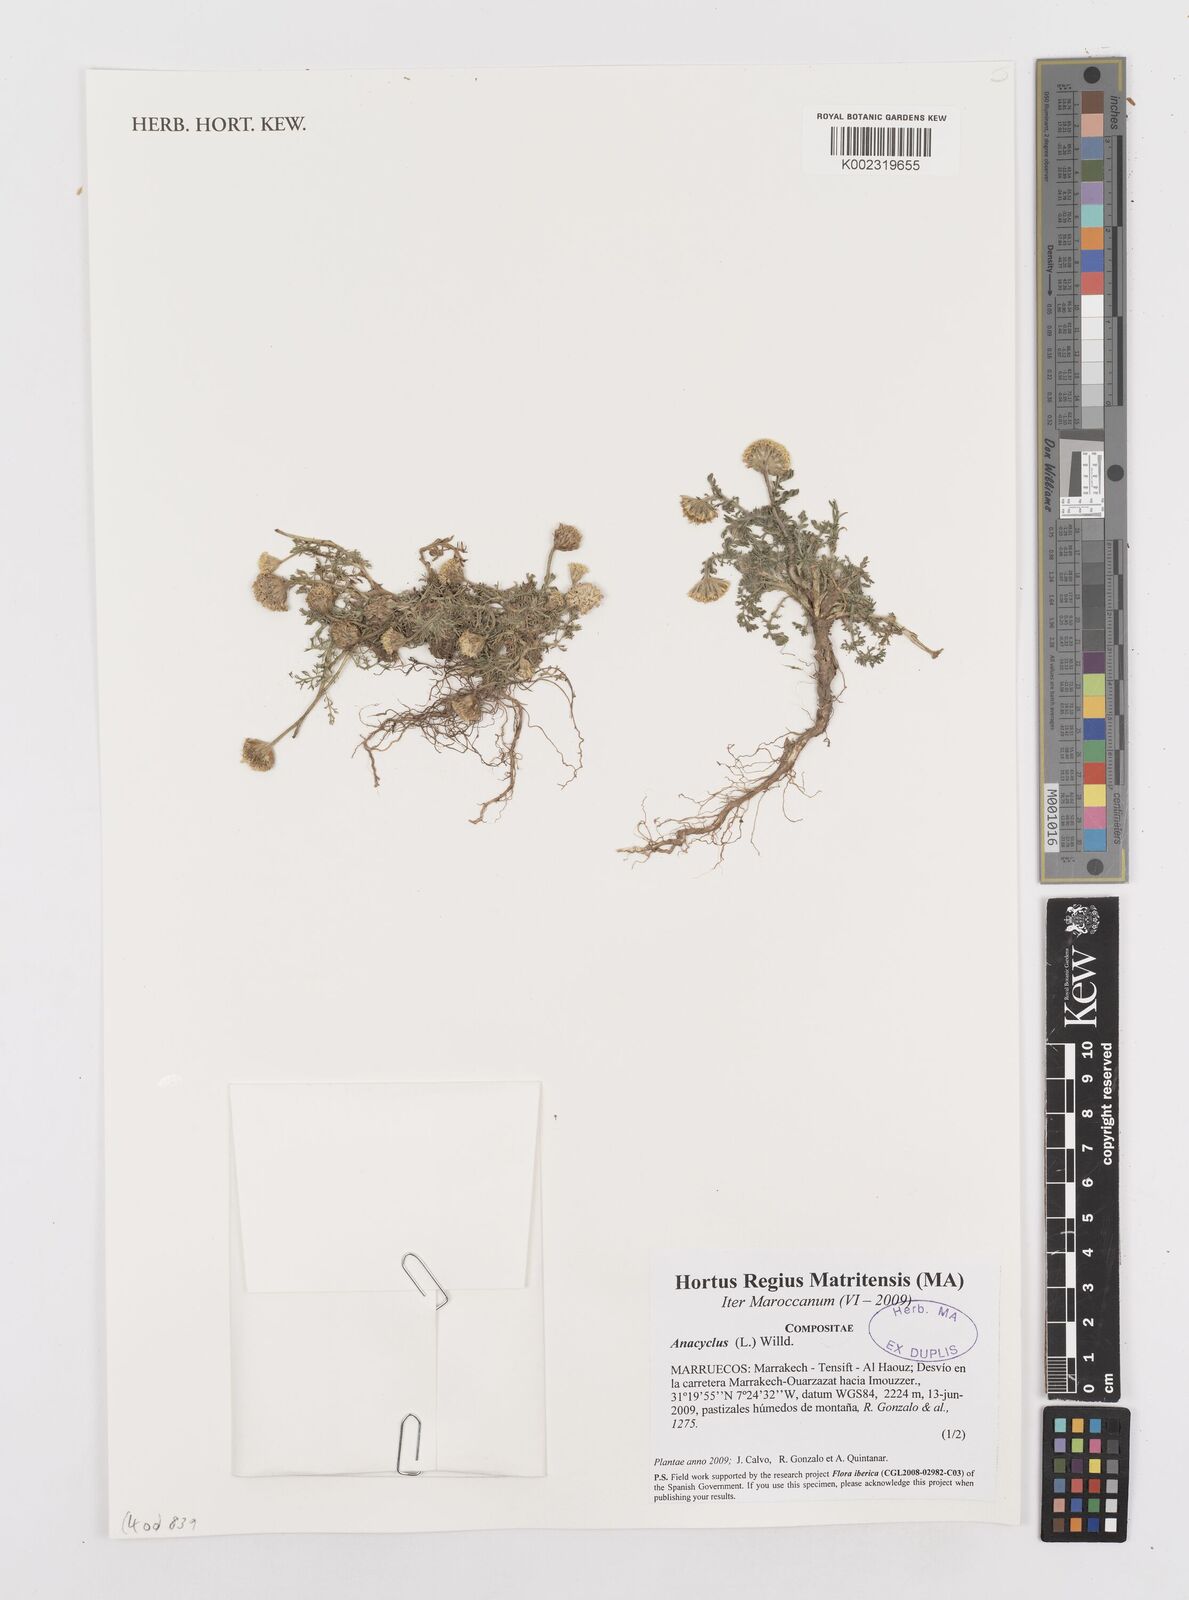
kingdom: Plantae
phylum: Tracheophyta
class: Magnoliopsida
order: Asterales
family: Asteraceae
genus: Anacyclus
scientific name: Anacyclus
